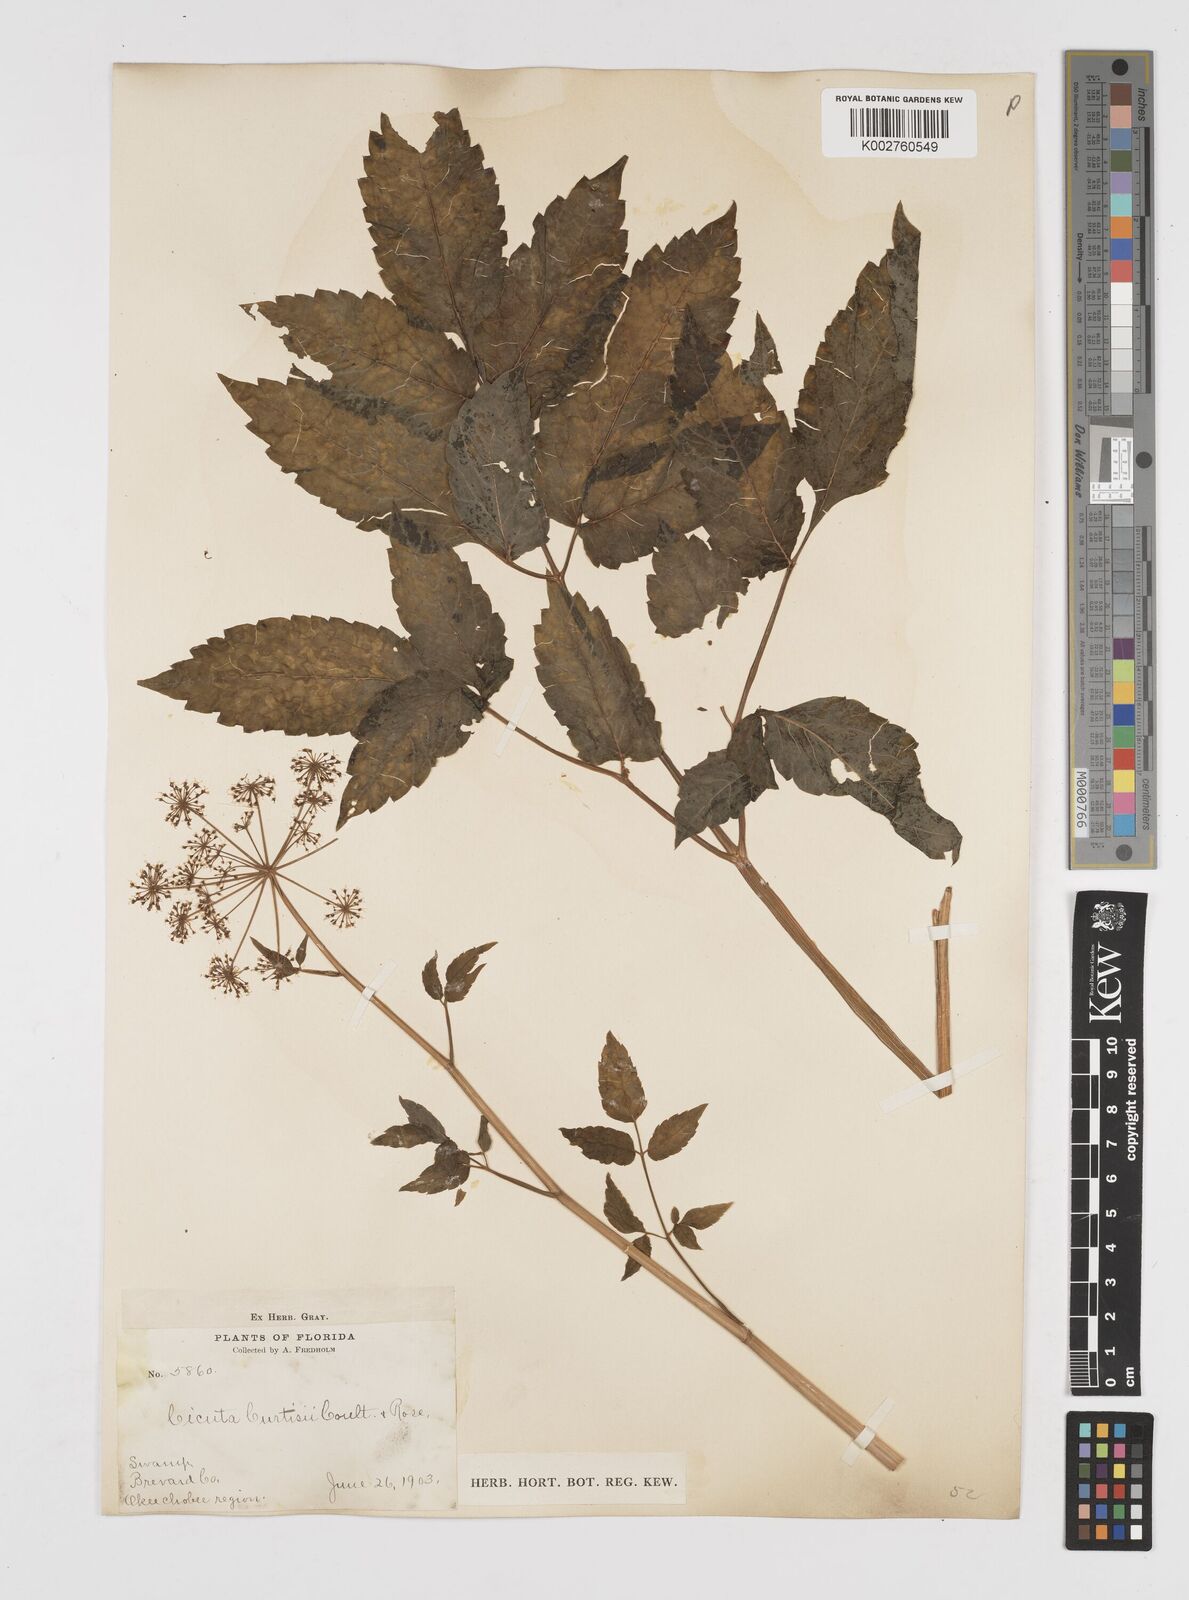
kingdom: Plantae
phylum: Tracheophyta
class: Magnoliopsida
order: Apiales
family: Apiaceae
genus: Cicuta
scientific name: Cicuta douglasii
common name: Western water-hemlock
